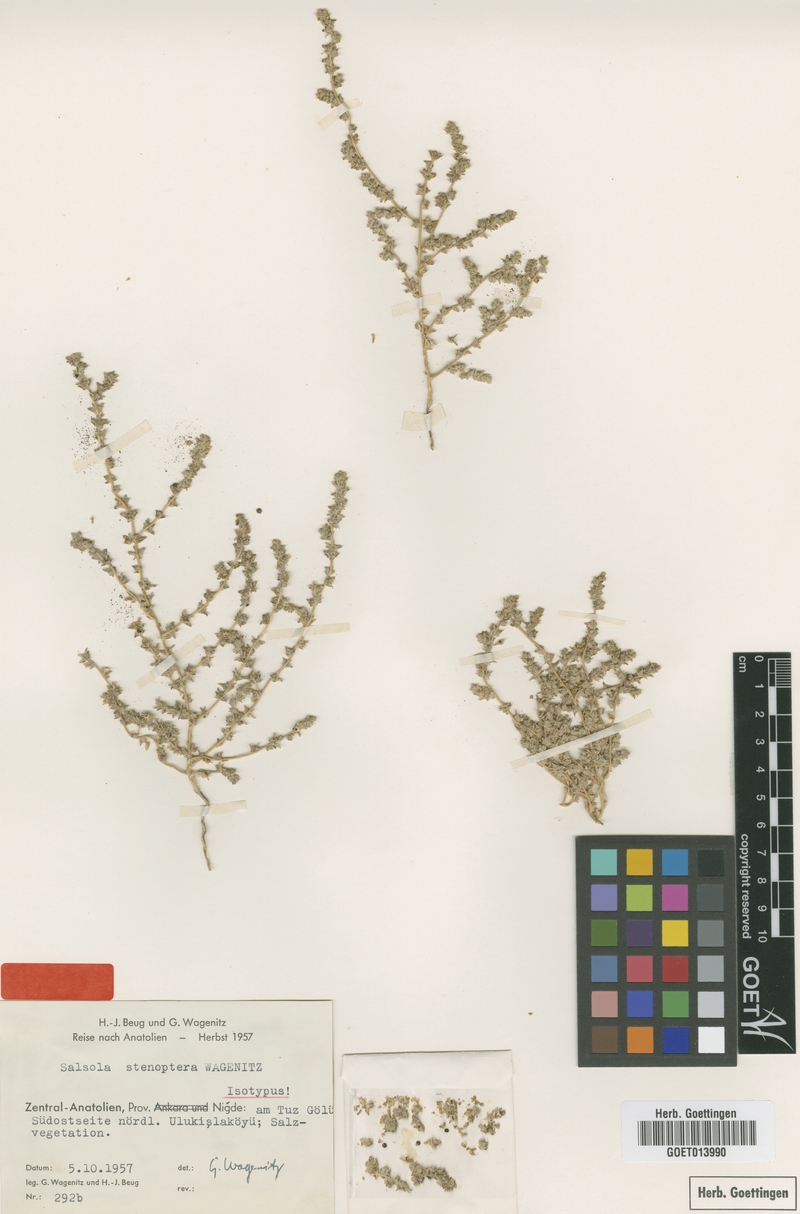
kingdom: Plantae
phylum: Tracheophyta
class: Magnoliopsida
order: Caryophyllales
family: Amaranthaceae
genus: Caroxylon
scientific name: Caroxylon stenopterum
